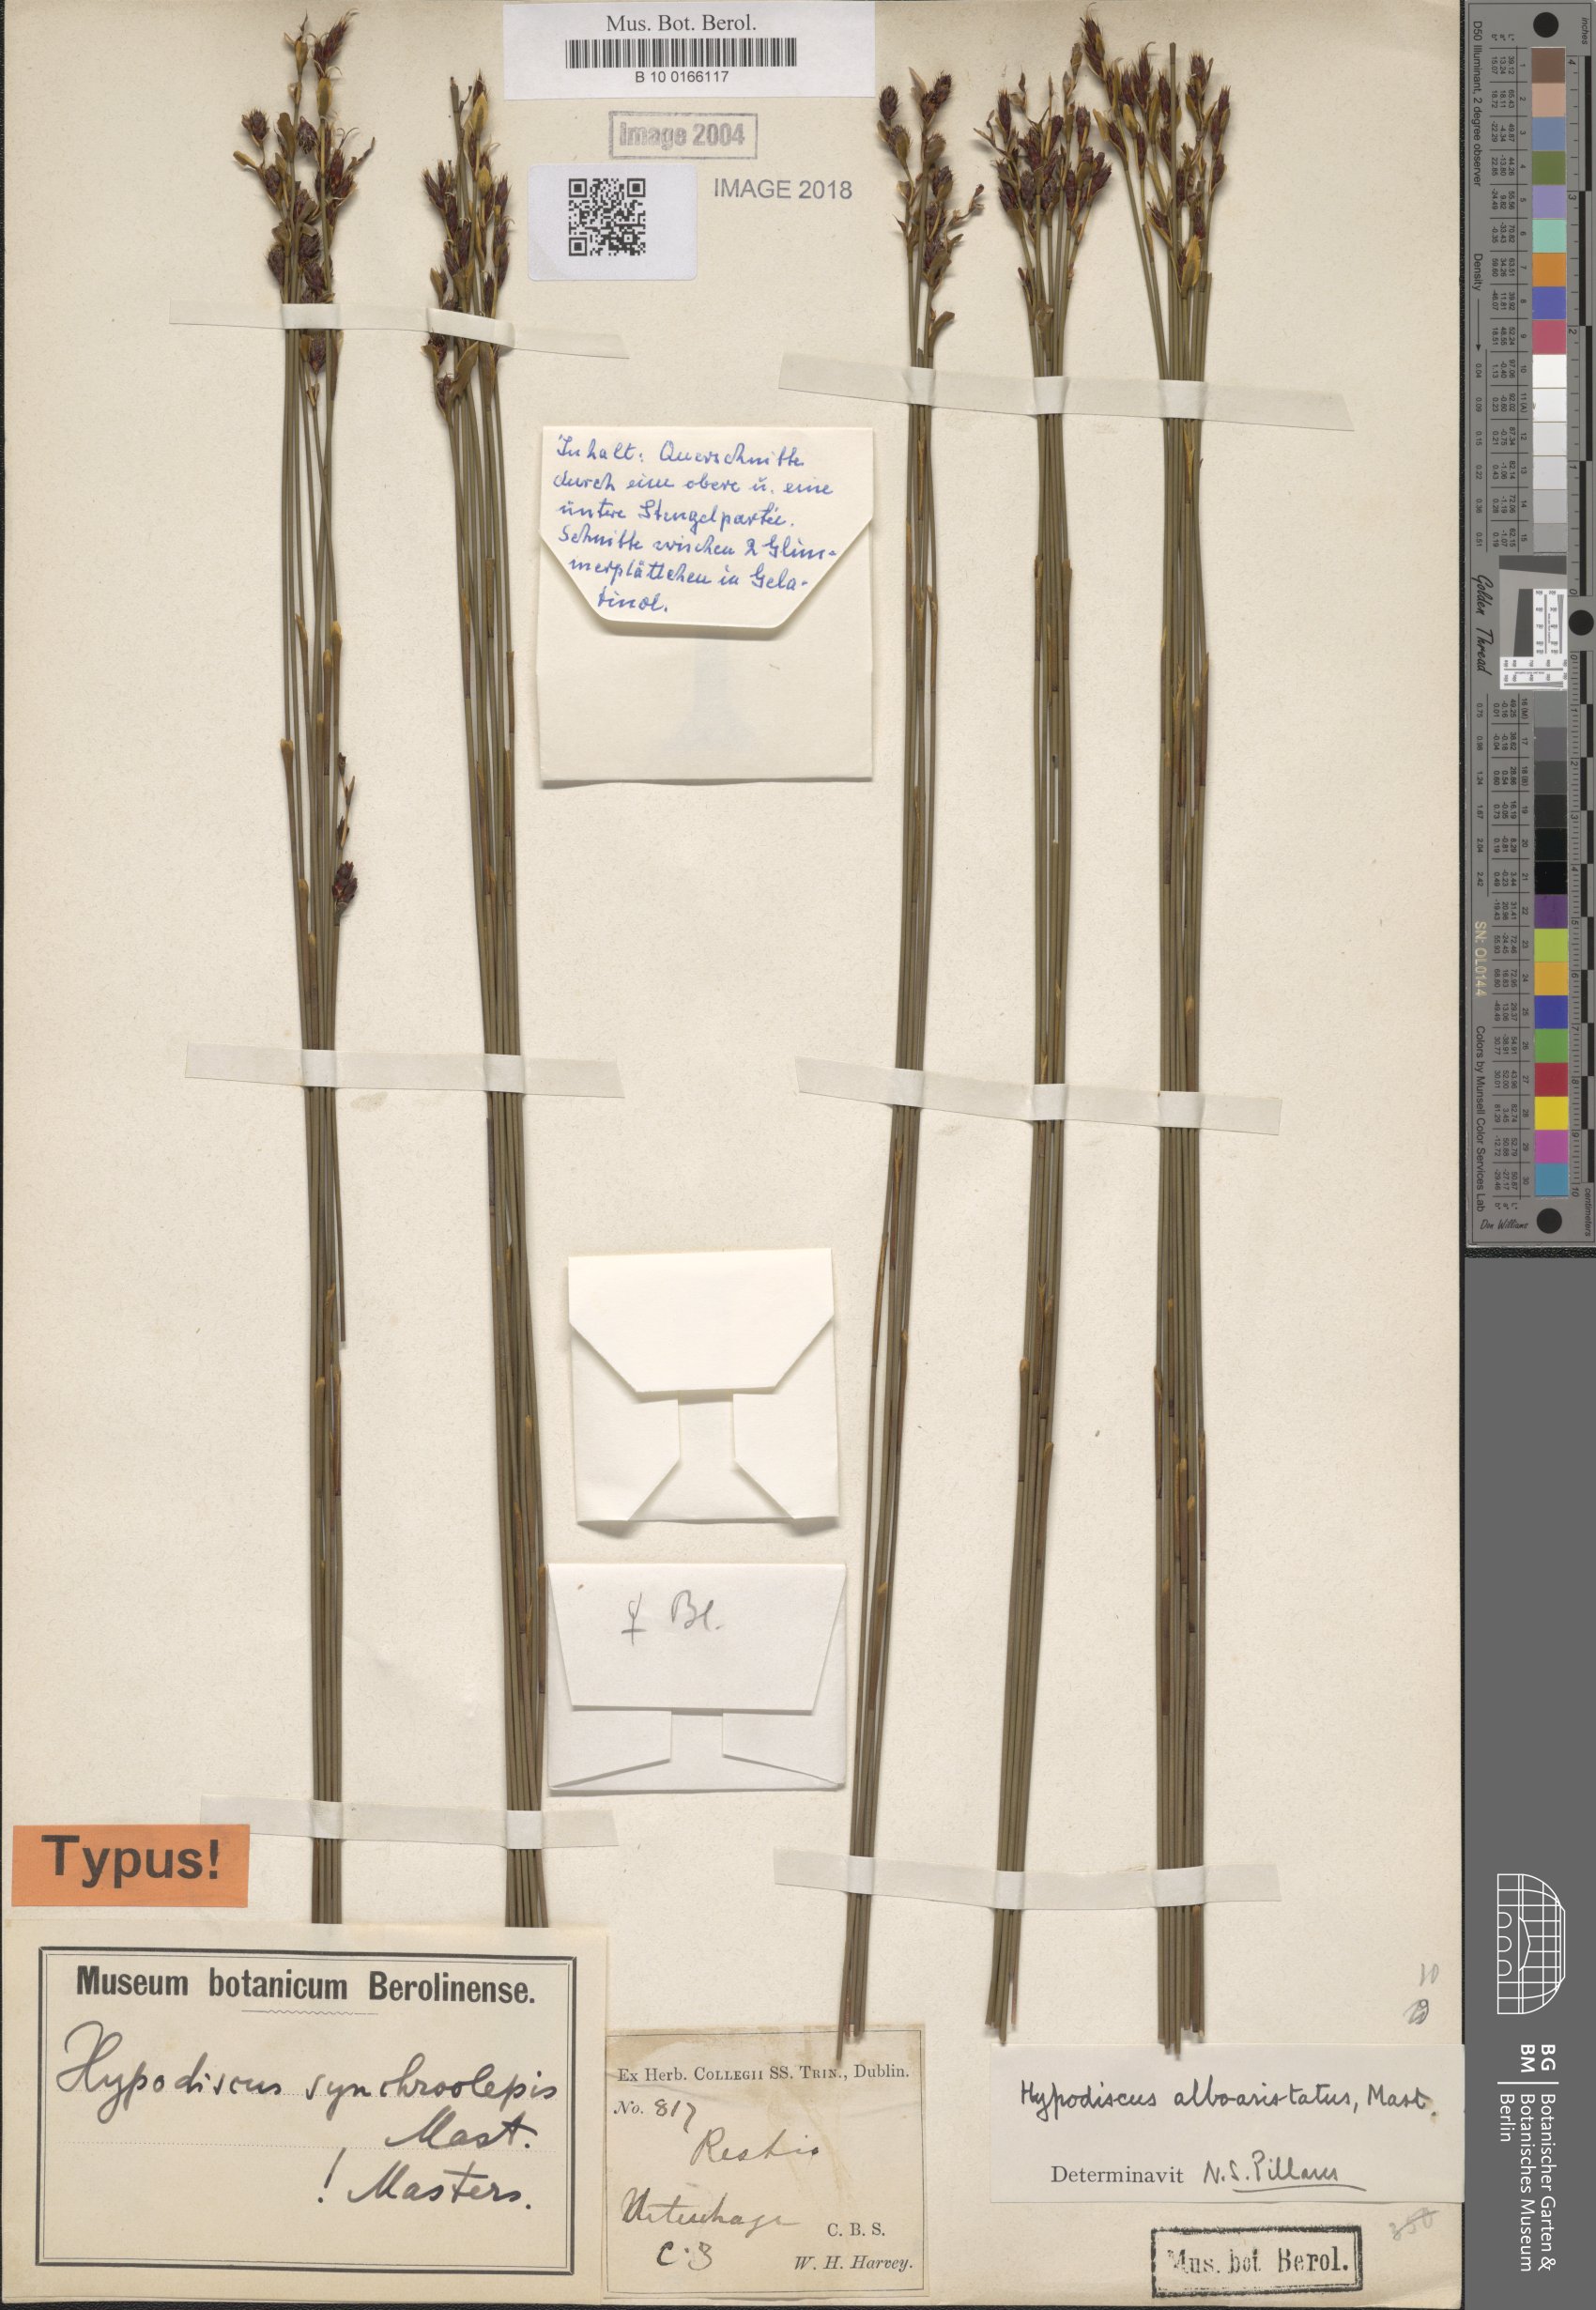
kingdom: Plantae
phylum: Tracheophyta
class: Liliopsida
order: Poales
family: Restionaceae
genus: Hypodiscus
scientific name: Hypodiscus synchroolepis
